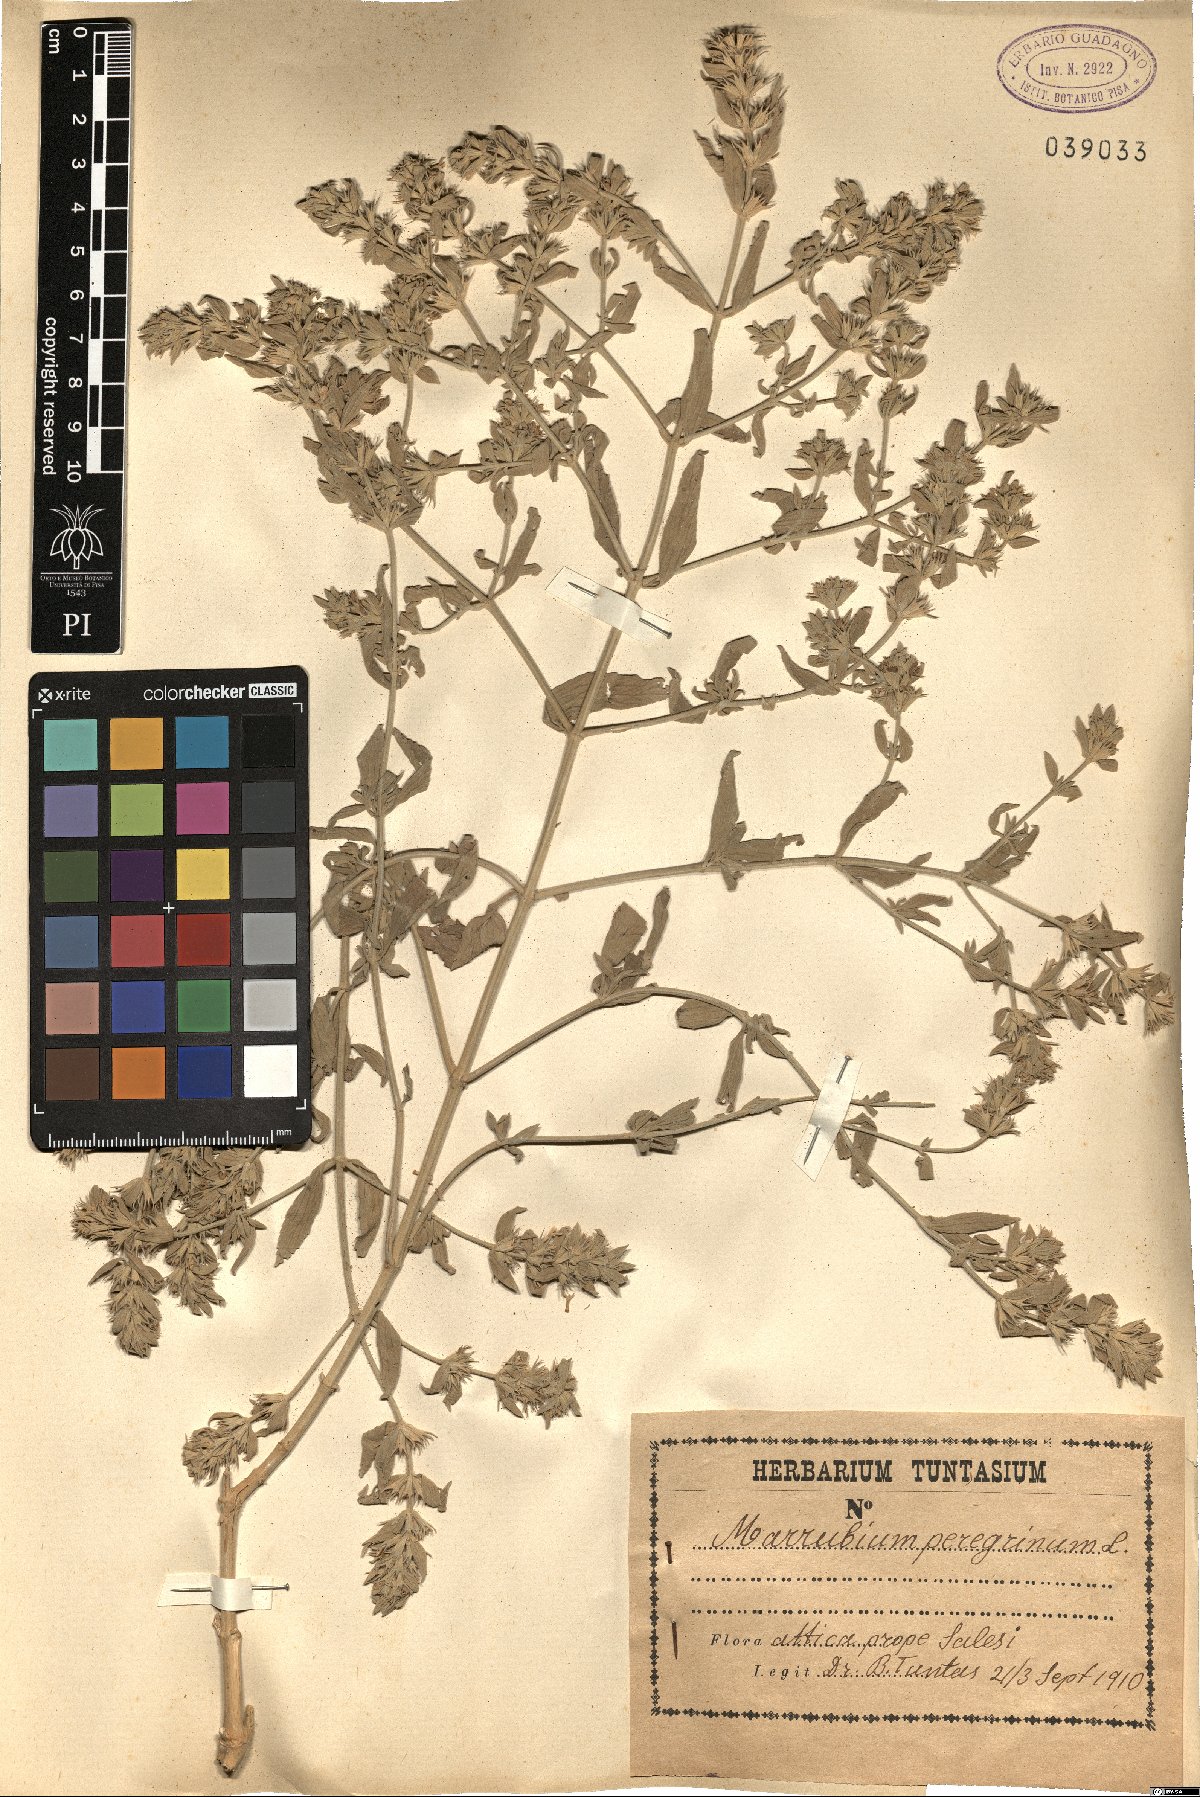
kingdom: Plantae
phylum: Tracheophyta
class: Magnoliopsida
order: Lamiales
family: Lamiaceae
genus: Marrubium
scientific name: Marrubium peregrinum
